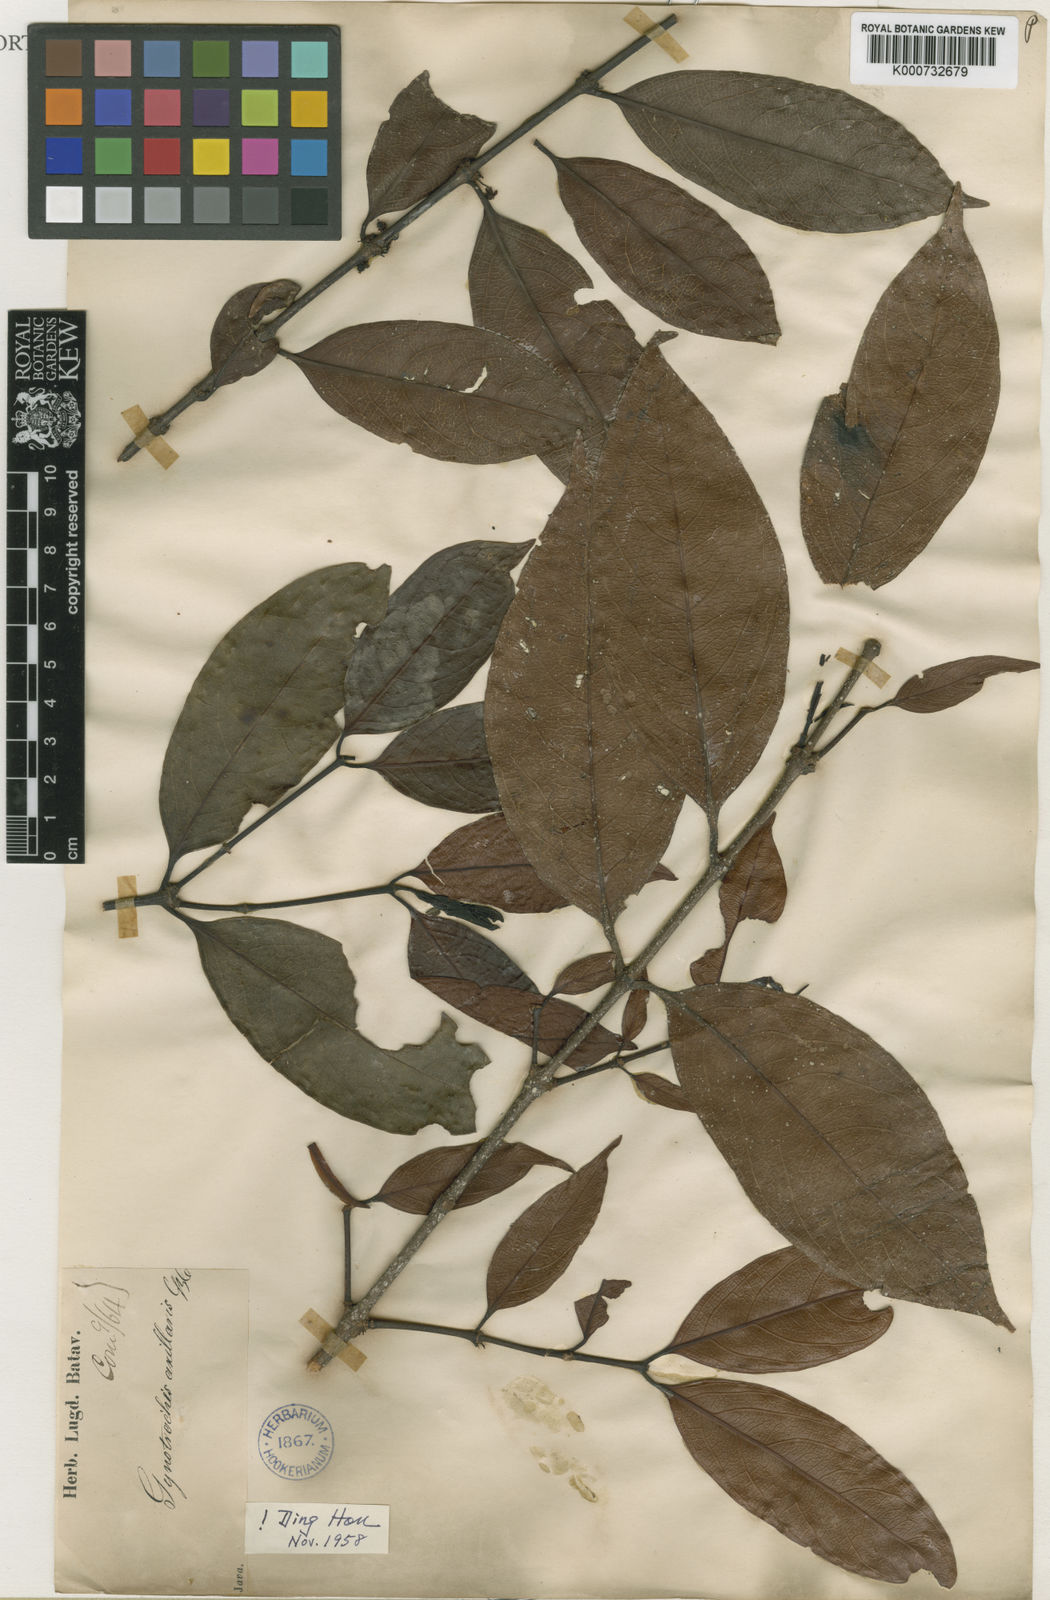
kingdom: Plantae
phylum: Tracheophyta
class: Magnoliopsida
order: Malpighiales
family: Rhizophoraceae
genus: Gynotroches
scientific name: Gynotroches axillaris
